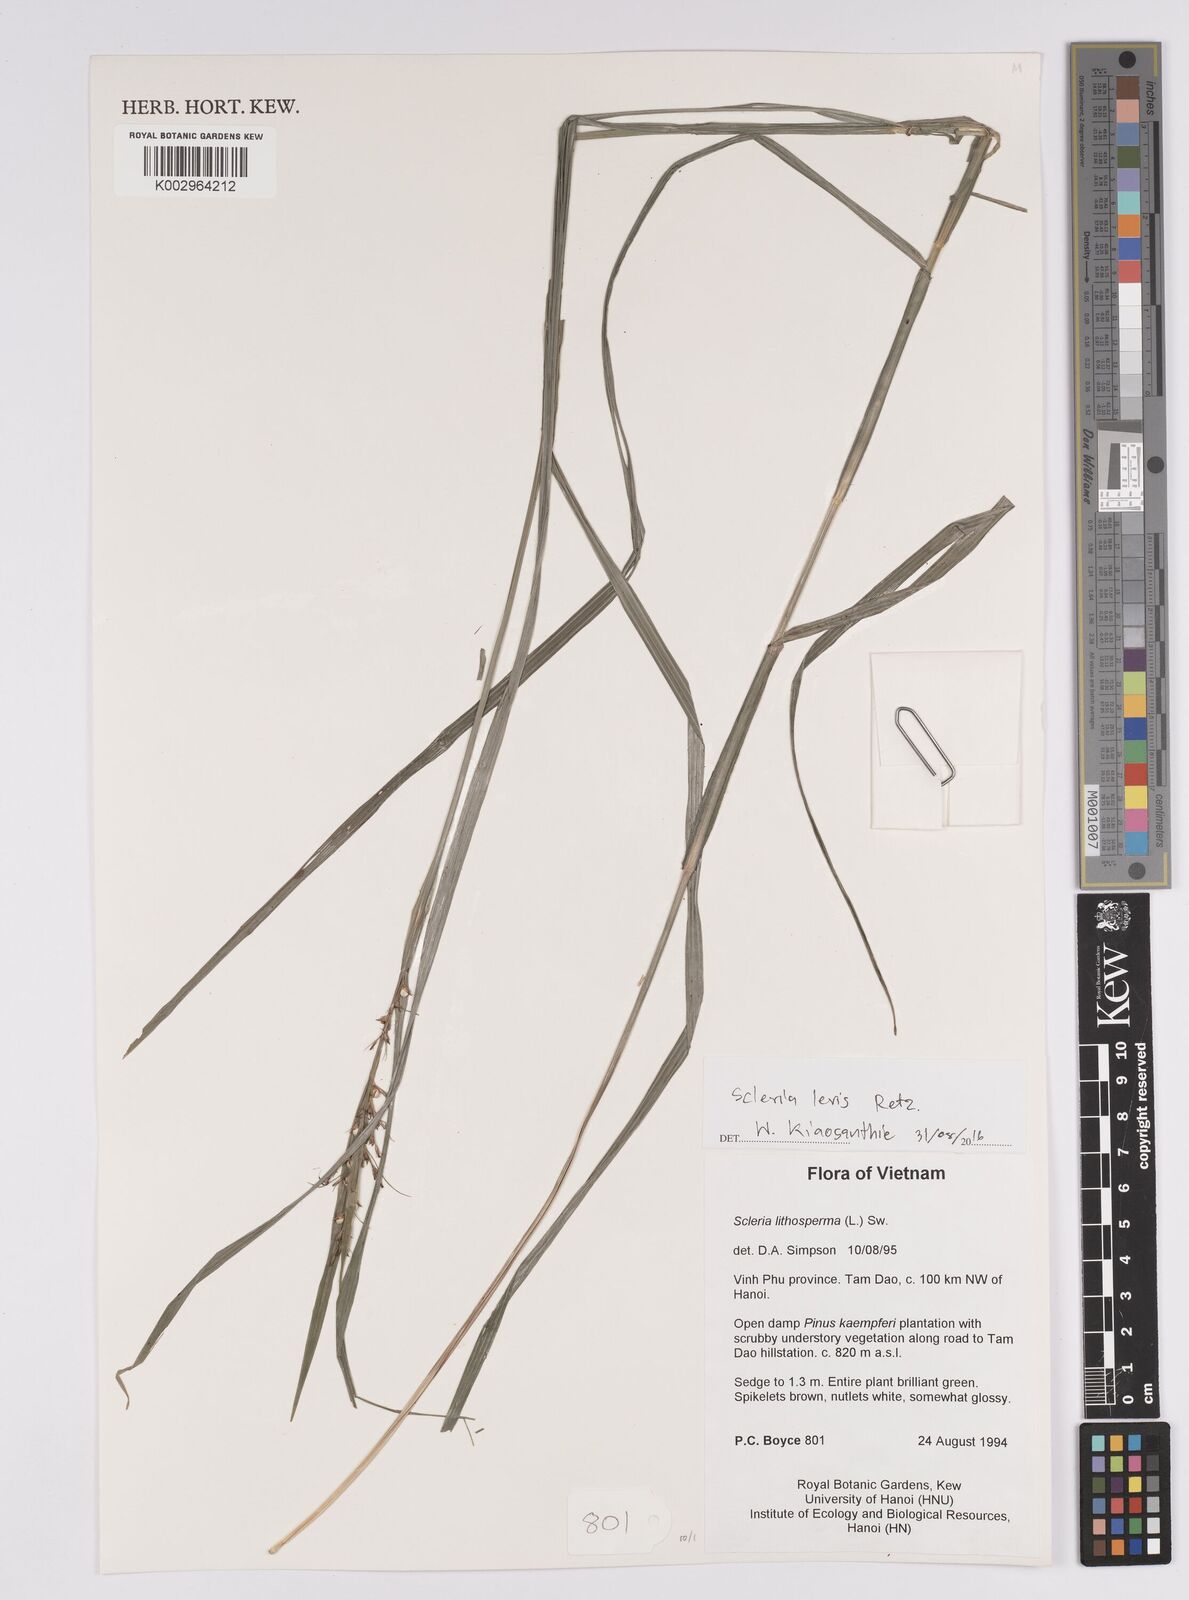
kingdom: Plantae
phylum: Tracheophyta
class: Liliopsida
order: Poales
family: Cyperaceae
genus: Scleria
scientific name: Scleria levis
